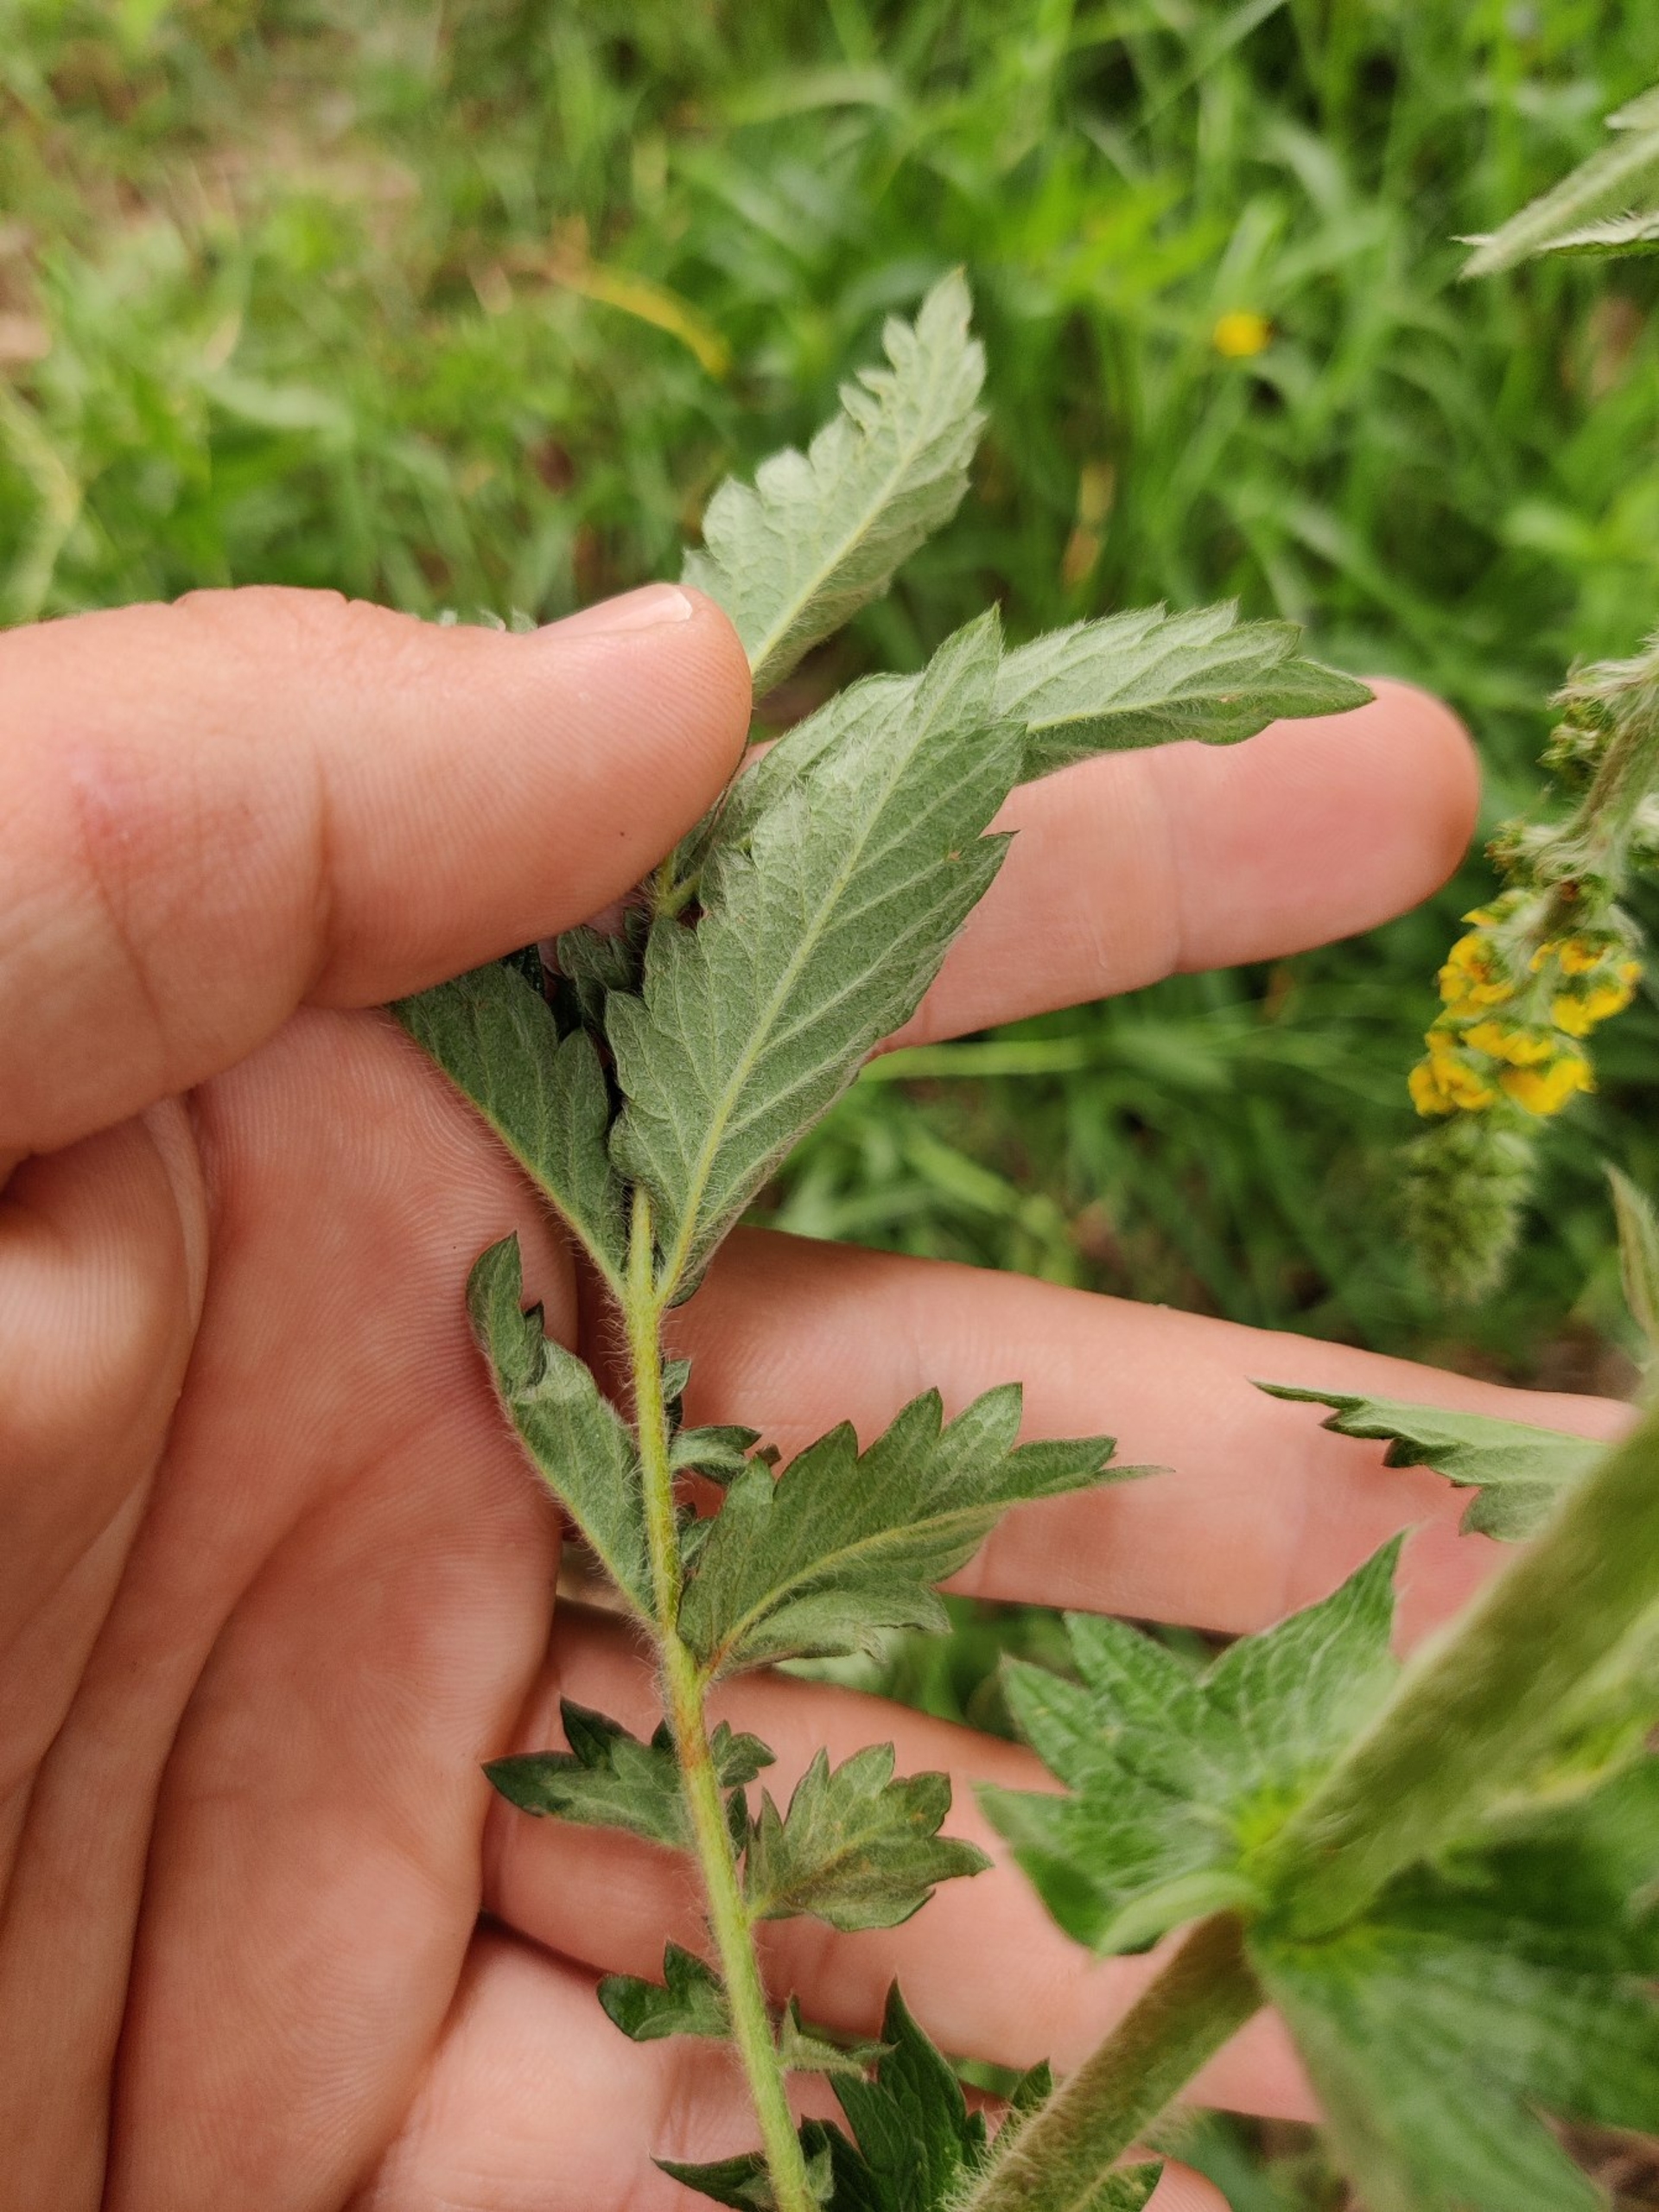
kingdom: Plantae
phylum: Tracheophyta
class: Magnoliopsida
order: Rosales
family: Rosaceae
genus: Agrimonia
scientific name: Agrimonia eupatoria
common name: Almindelig agermåne
